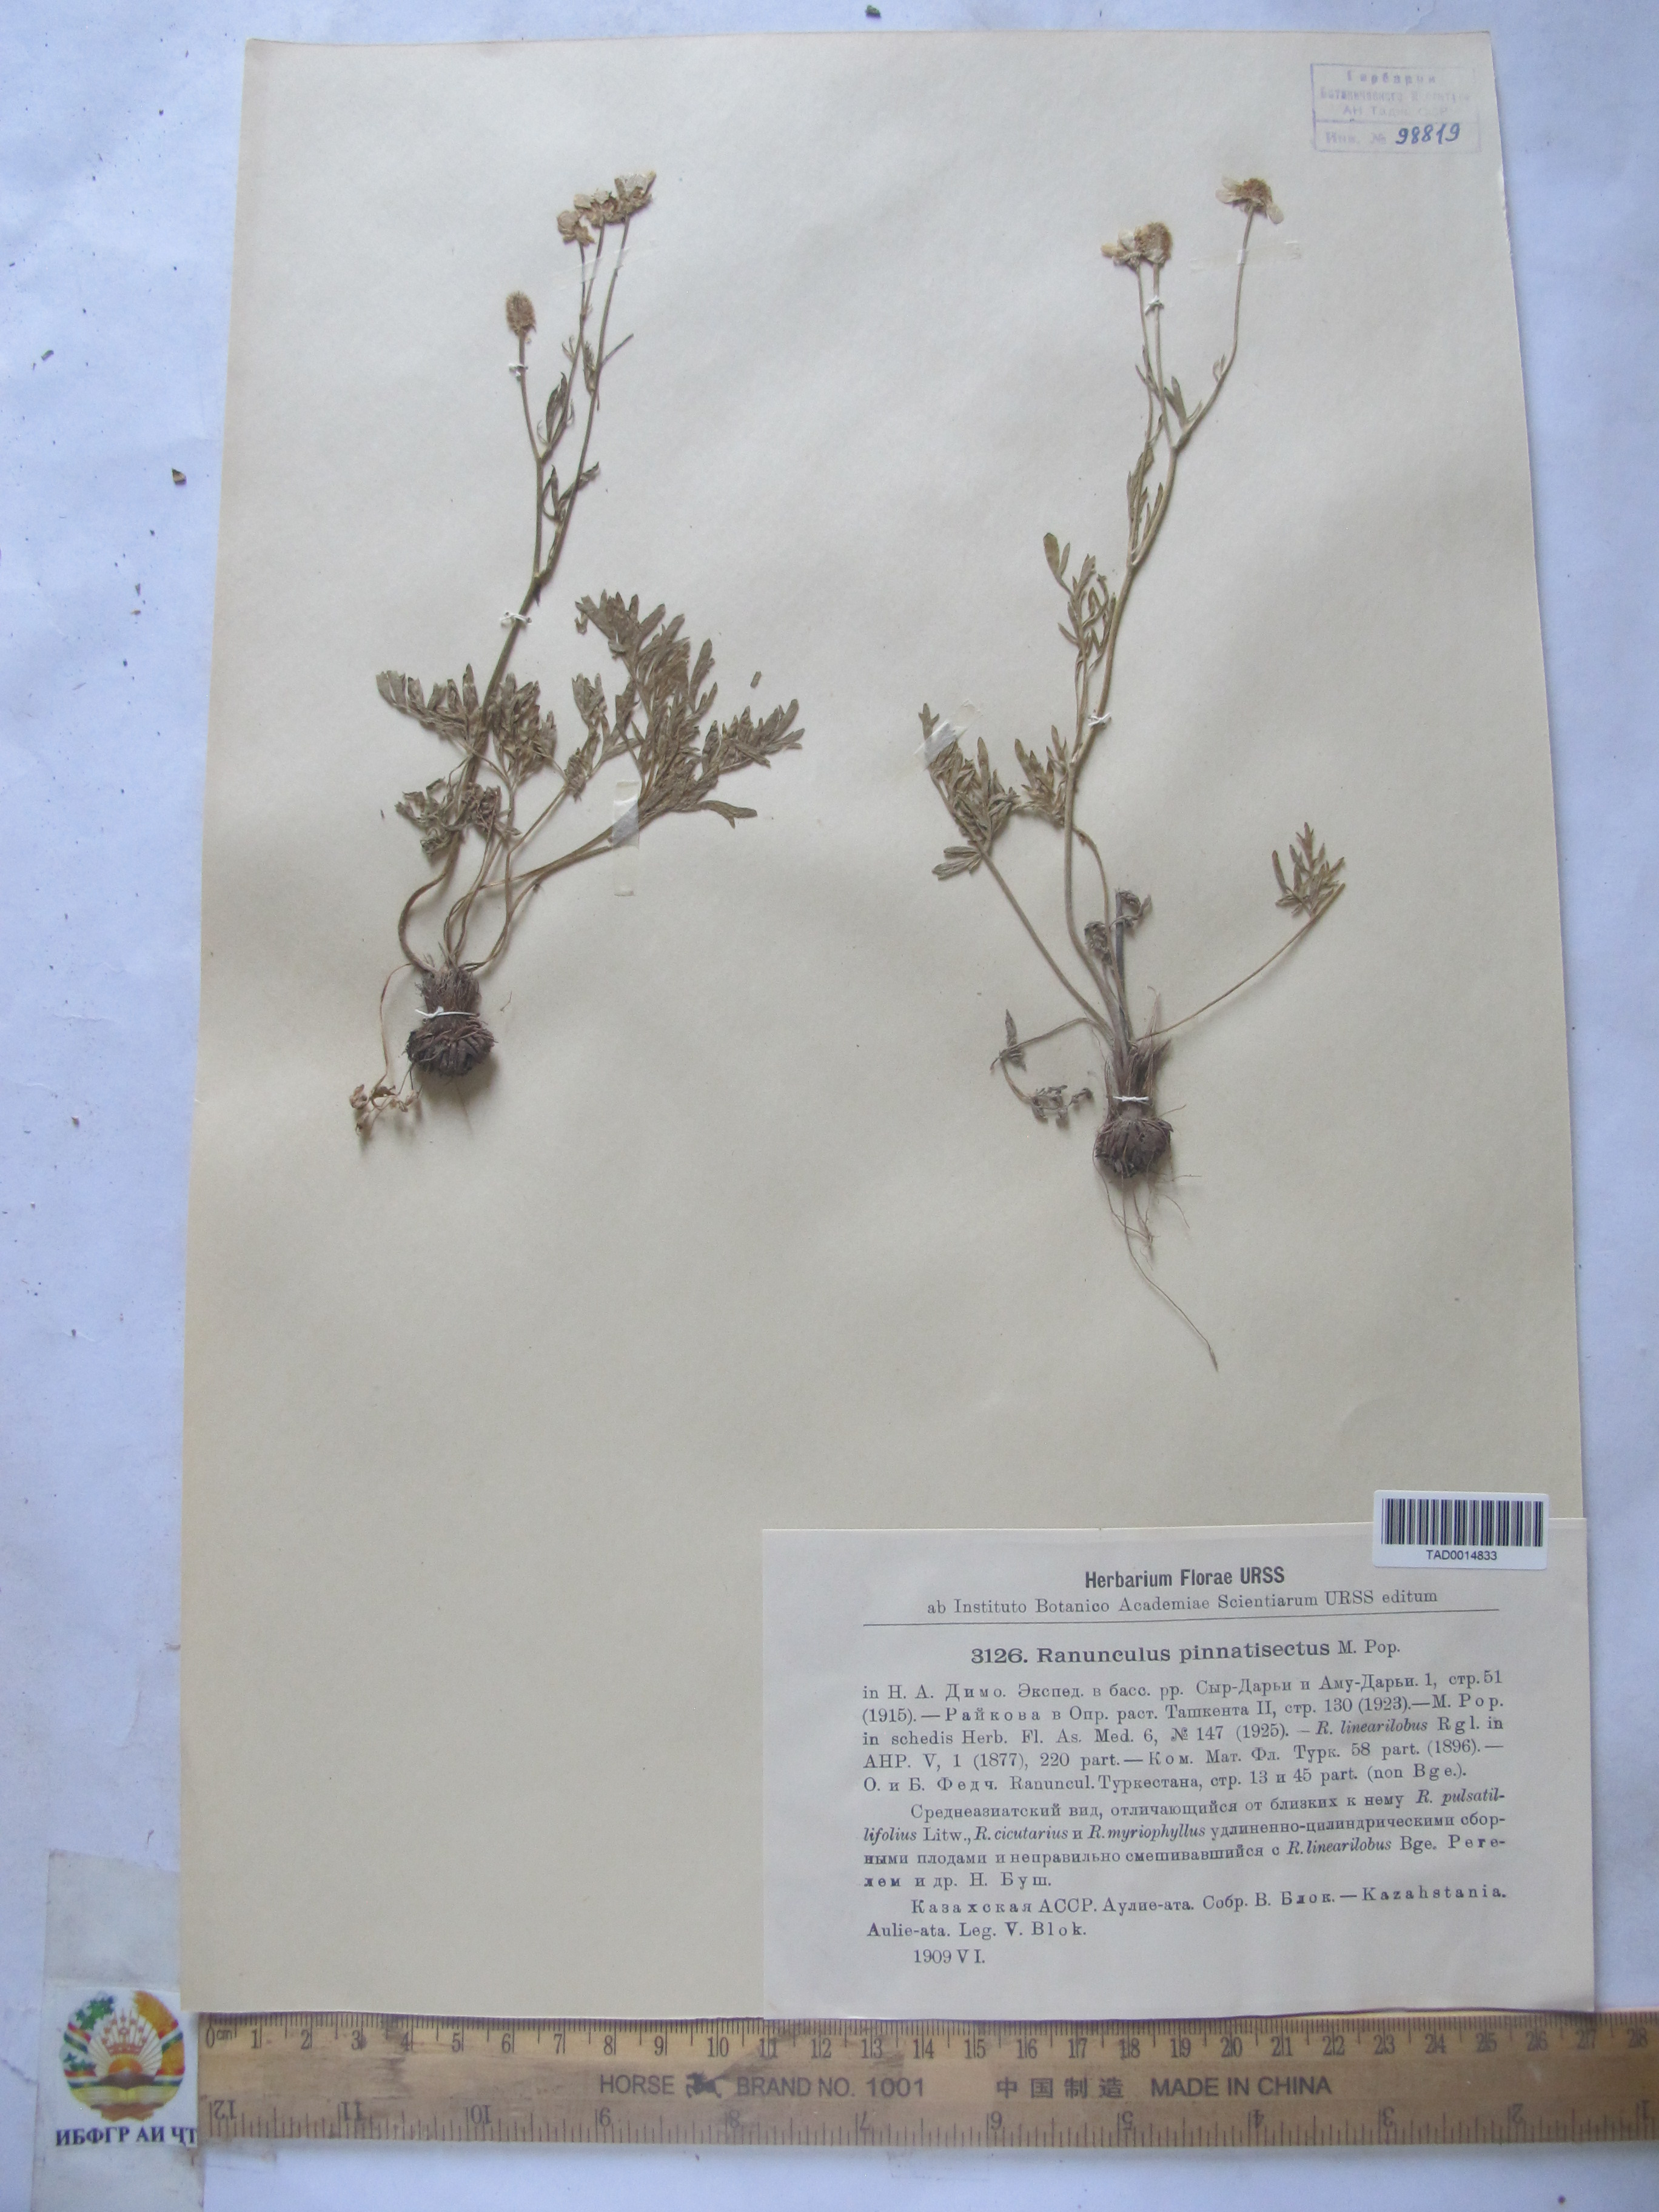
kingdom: Plantae
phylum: Tracheophyta
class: Magnoliopsida
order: Ranunculales
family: Ranunculaceae
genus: Ranunculus
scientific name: Ranunculus pinnatisectus
